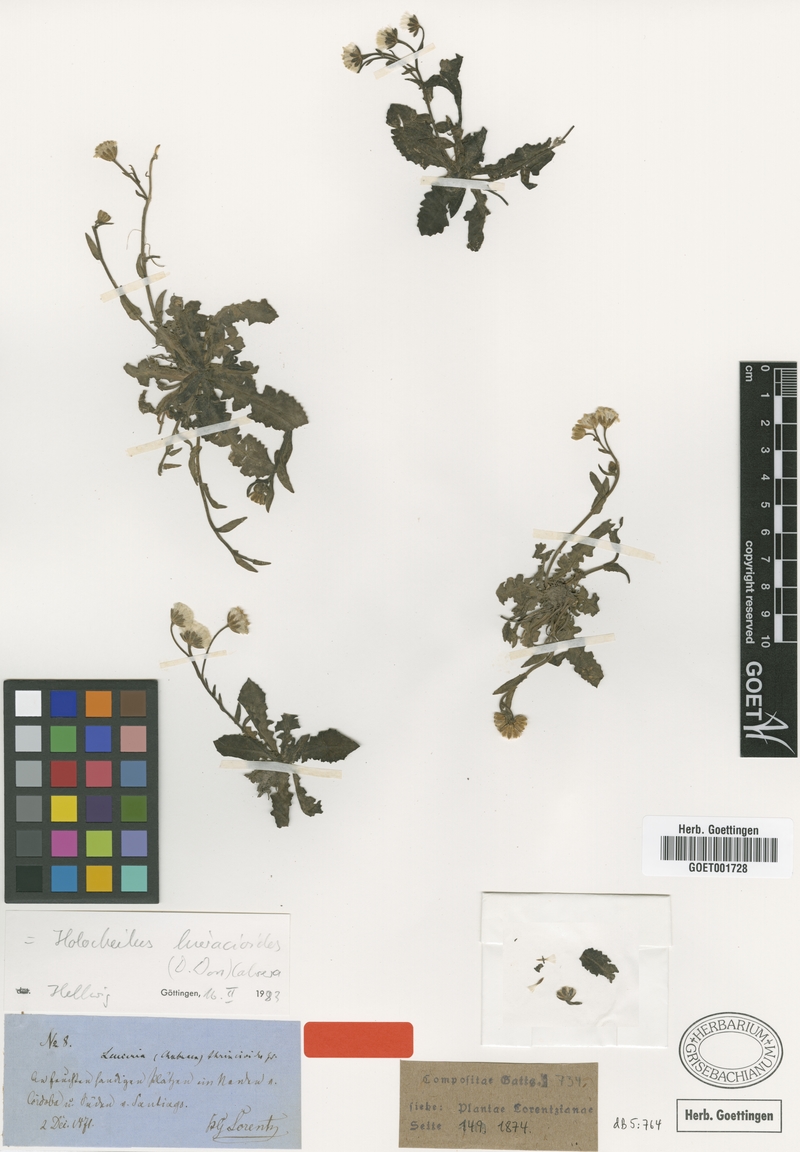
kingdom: Plantae
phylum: Tracheophyta
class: Magnoliopsida
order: Asterales
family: Asteraceae
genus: Holocheilus
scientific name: Holocheilus hieracioides
